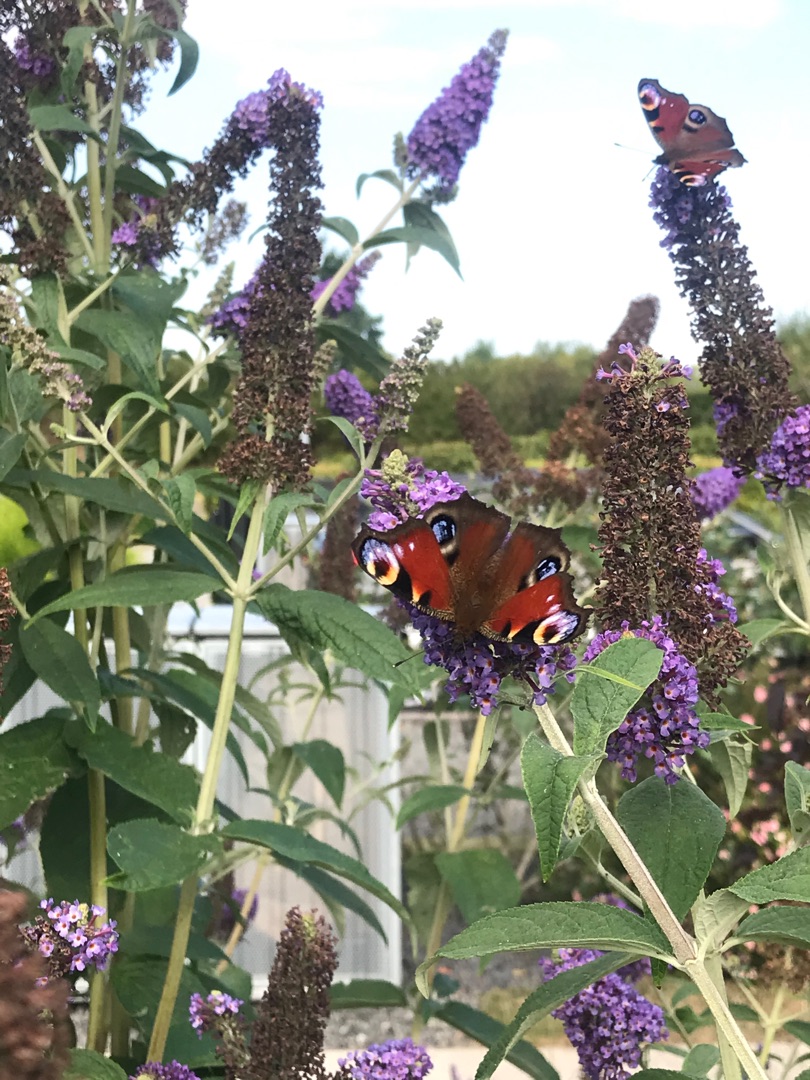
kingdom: Animalia
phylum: Arthropoda
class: Insecta
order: Lepidoptera
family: Nymphalidae
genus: Aglais
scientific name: Aglais io
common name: Dagpåfugleøje
